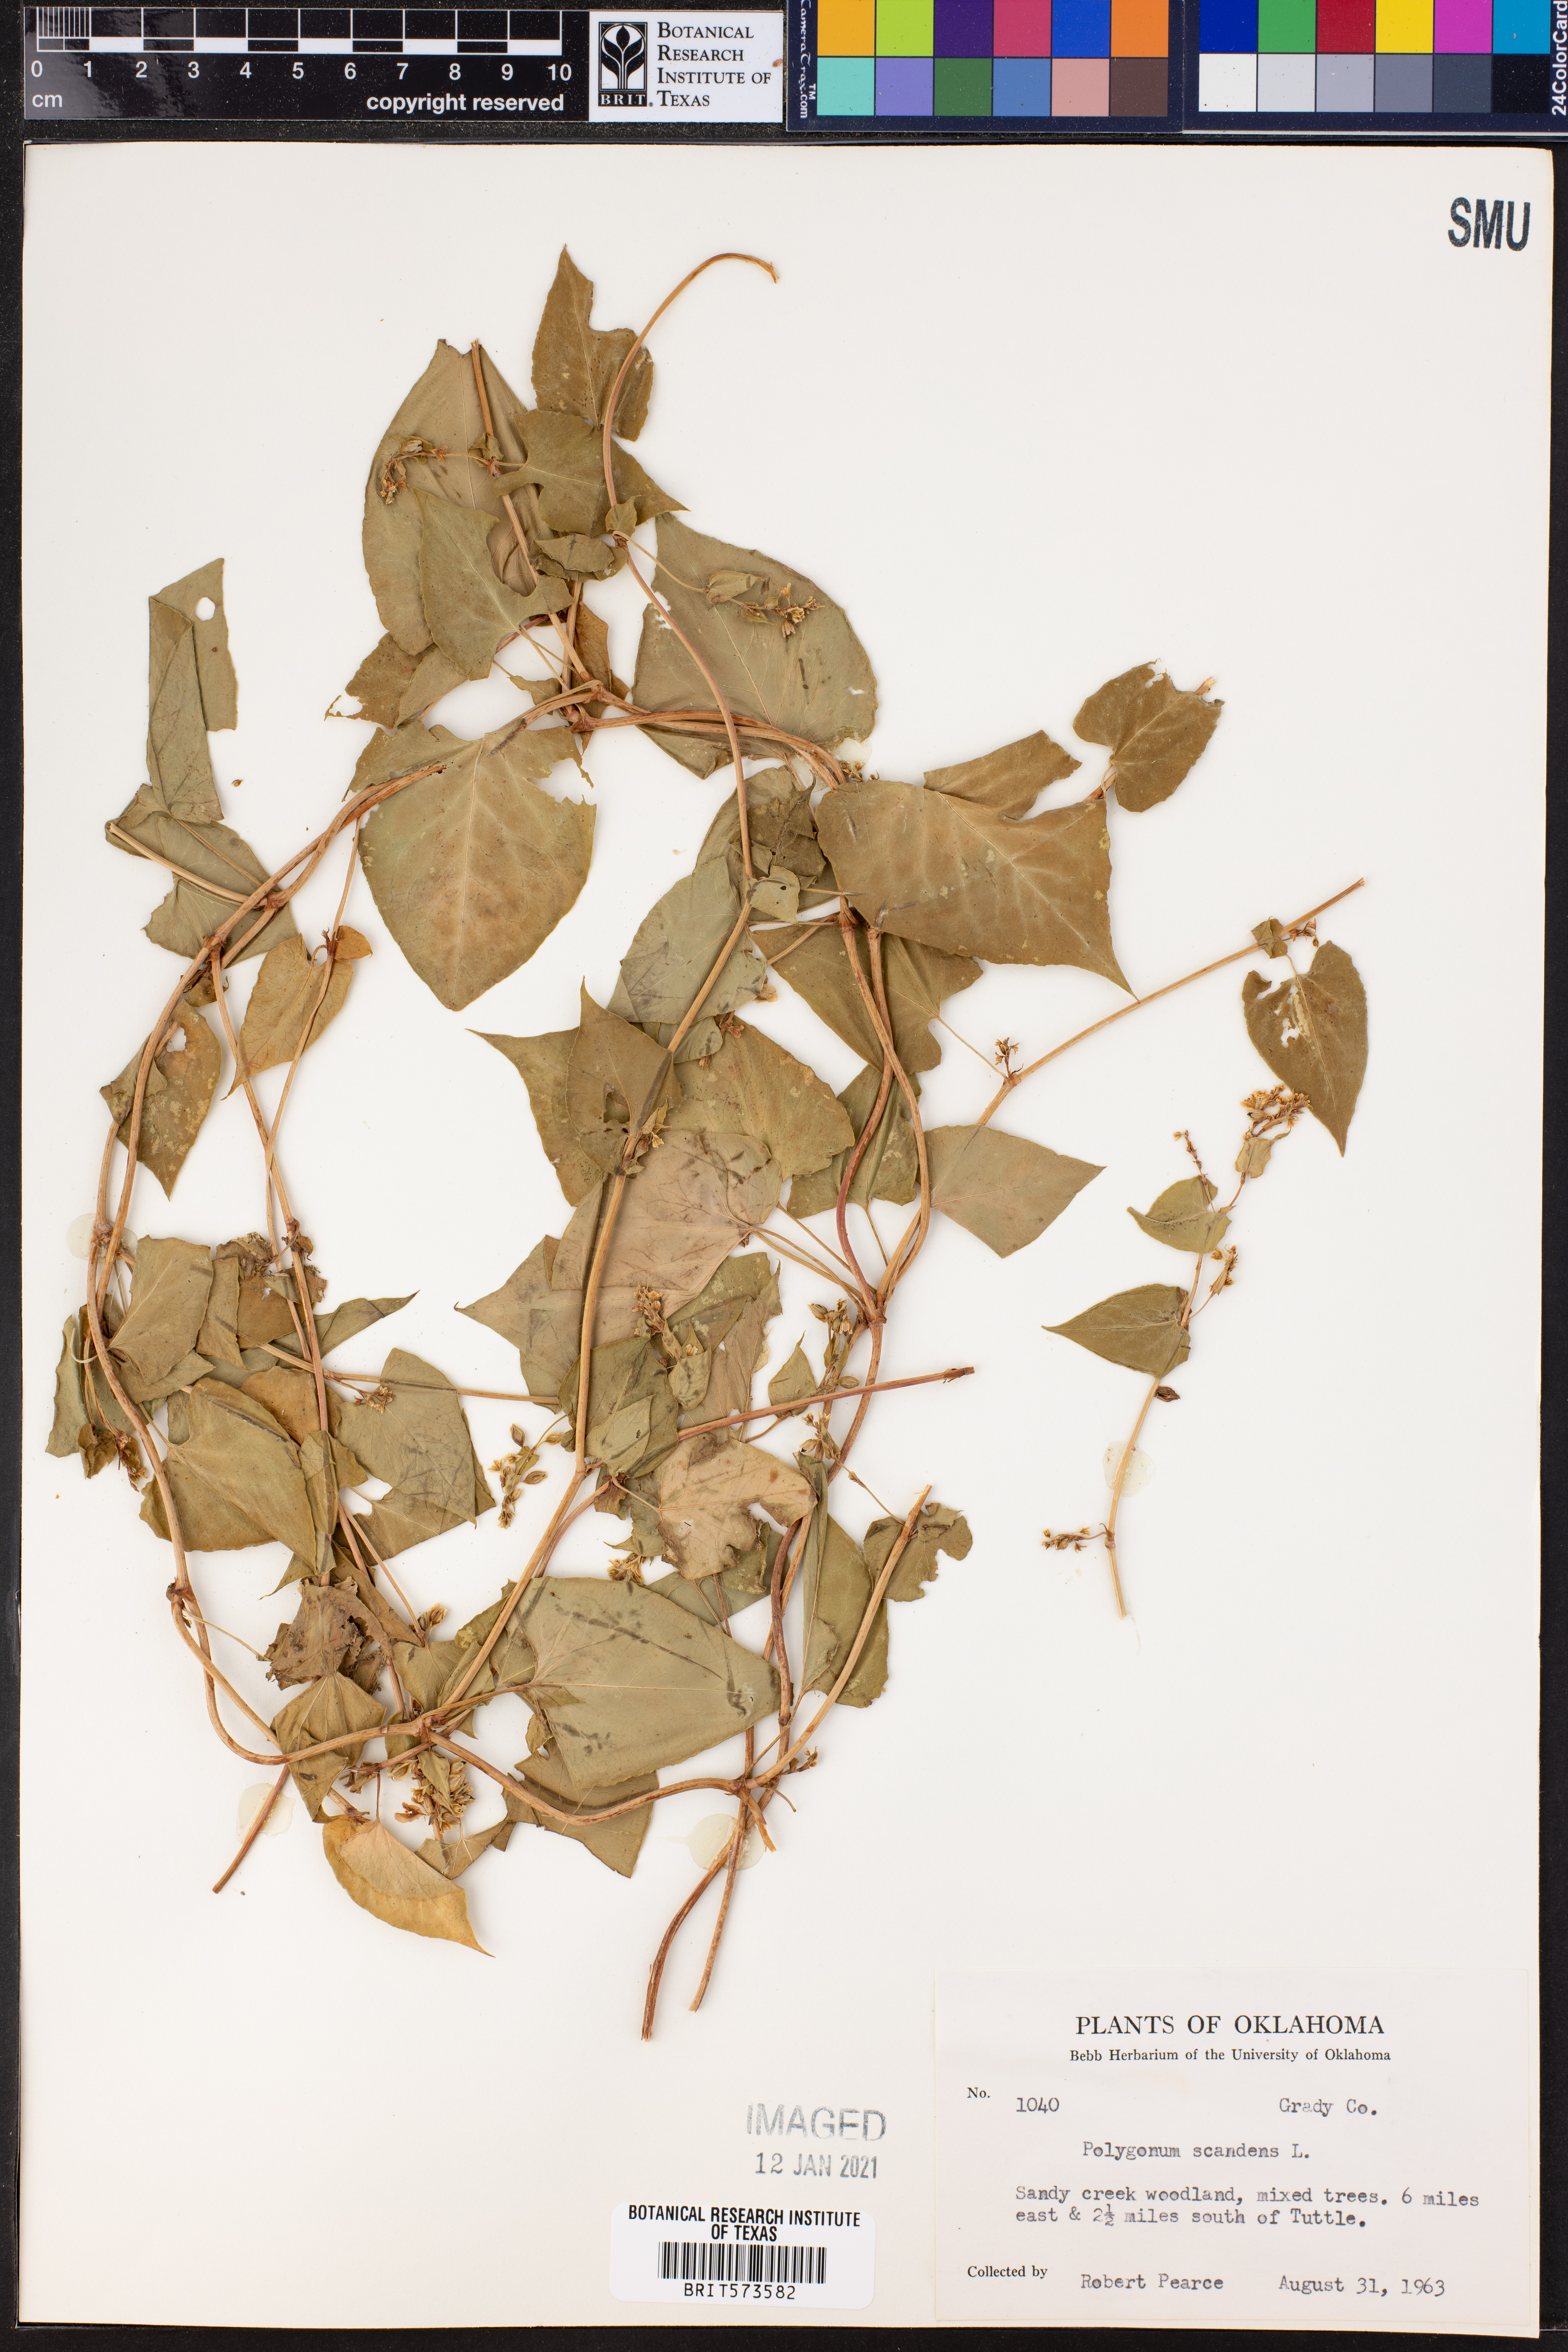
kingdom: Plantae
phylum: Tracheophyta
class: Magnoliopsida
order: Caryophyllales
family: Polygonaceae
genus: Fallopia
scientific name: Fallopia scandens
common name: Climbing false buckwheat
